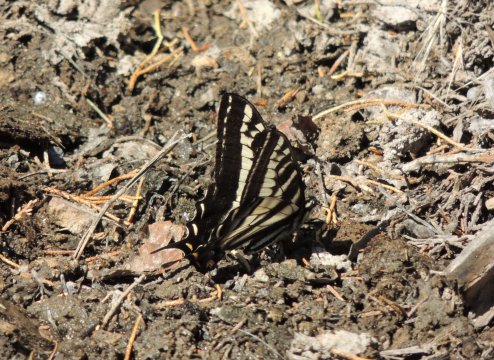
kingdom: Animalia
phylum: Arthropoda
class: Insecta
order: Lepidoptera
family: Papilionidae
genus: Pterourus
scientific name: Pterourus eurymedon
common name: Pale Swallowtail
